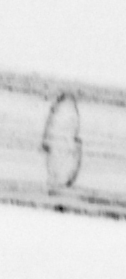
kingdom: Animalia
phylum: Chordata
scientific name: Chordata
